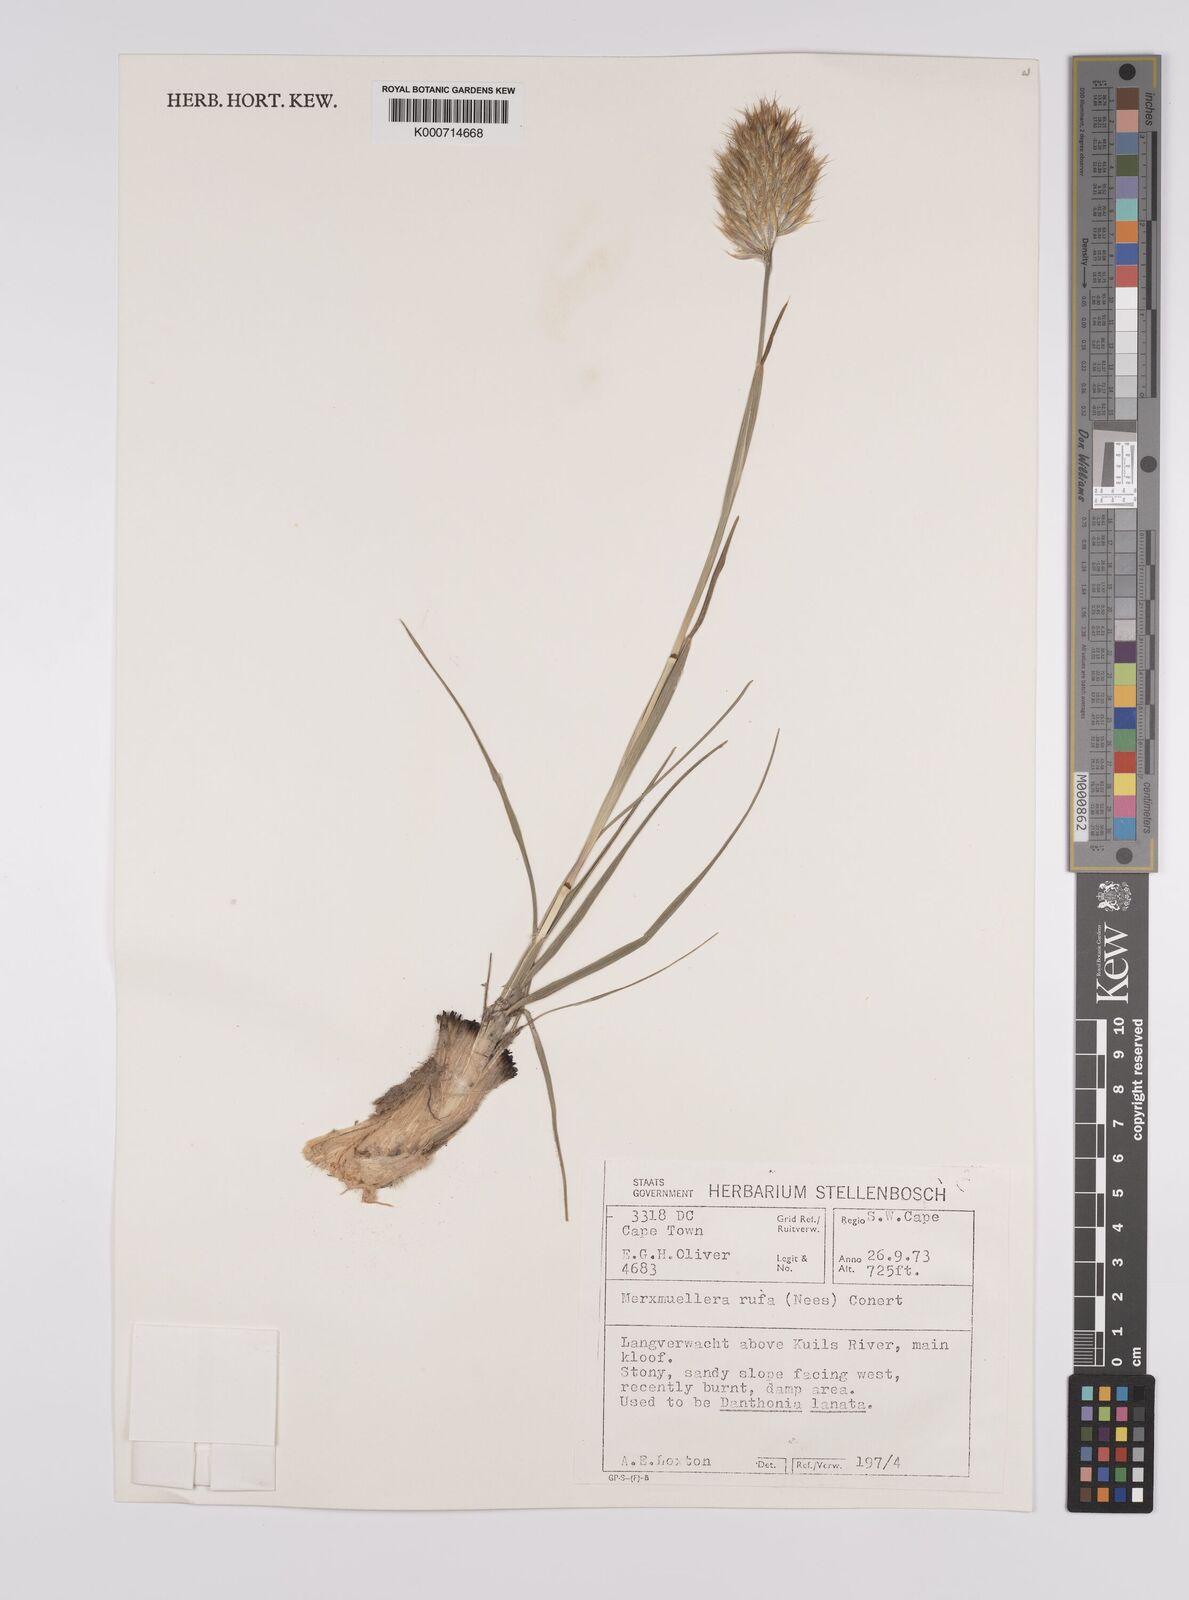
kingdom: Plantae
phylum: Tracheophyta
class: Liliopsida
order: Poales
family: Poaceae
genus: Rytidosperma
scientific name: Rytidosperma
